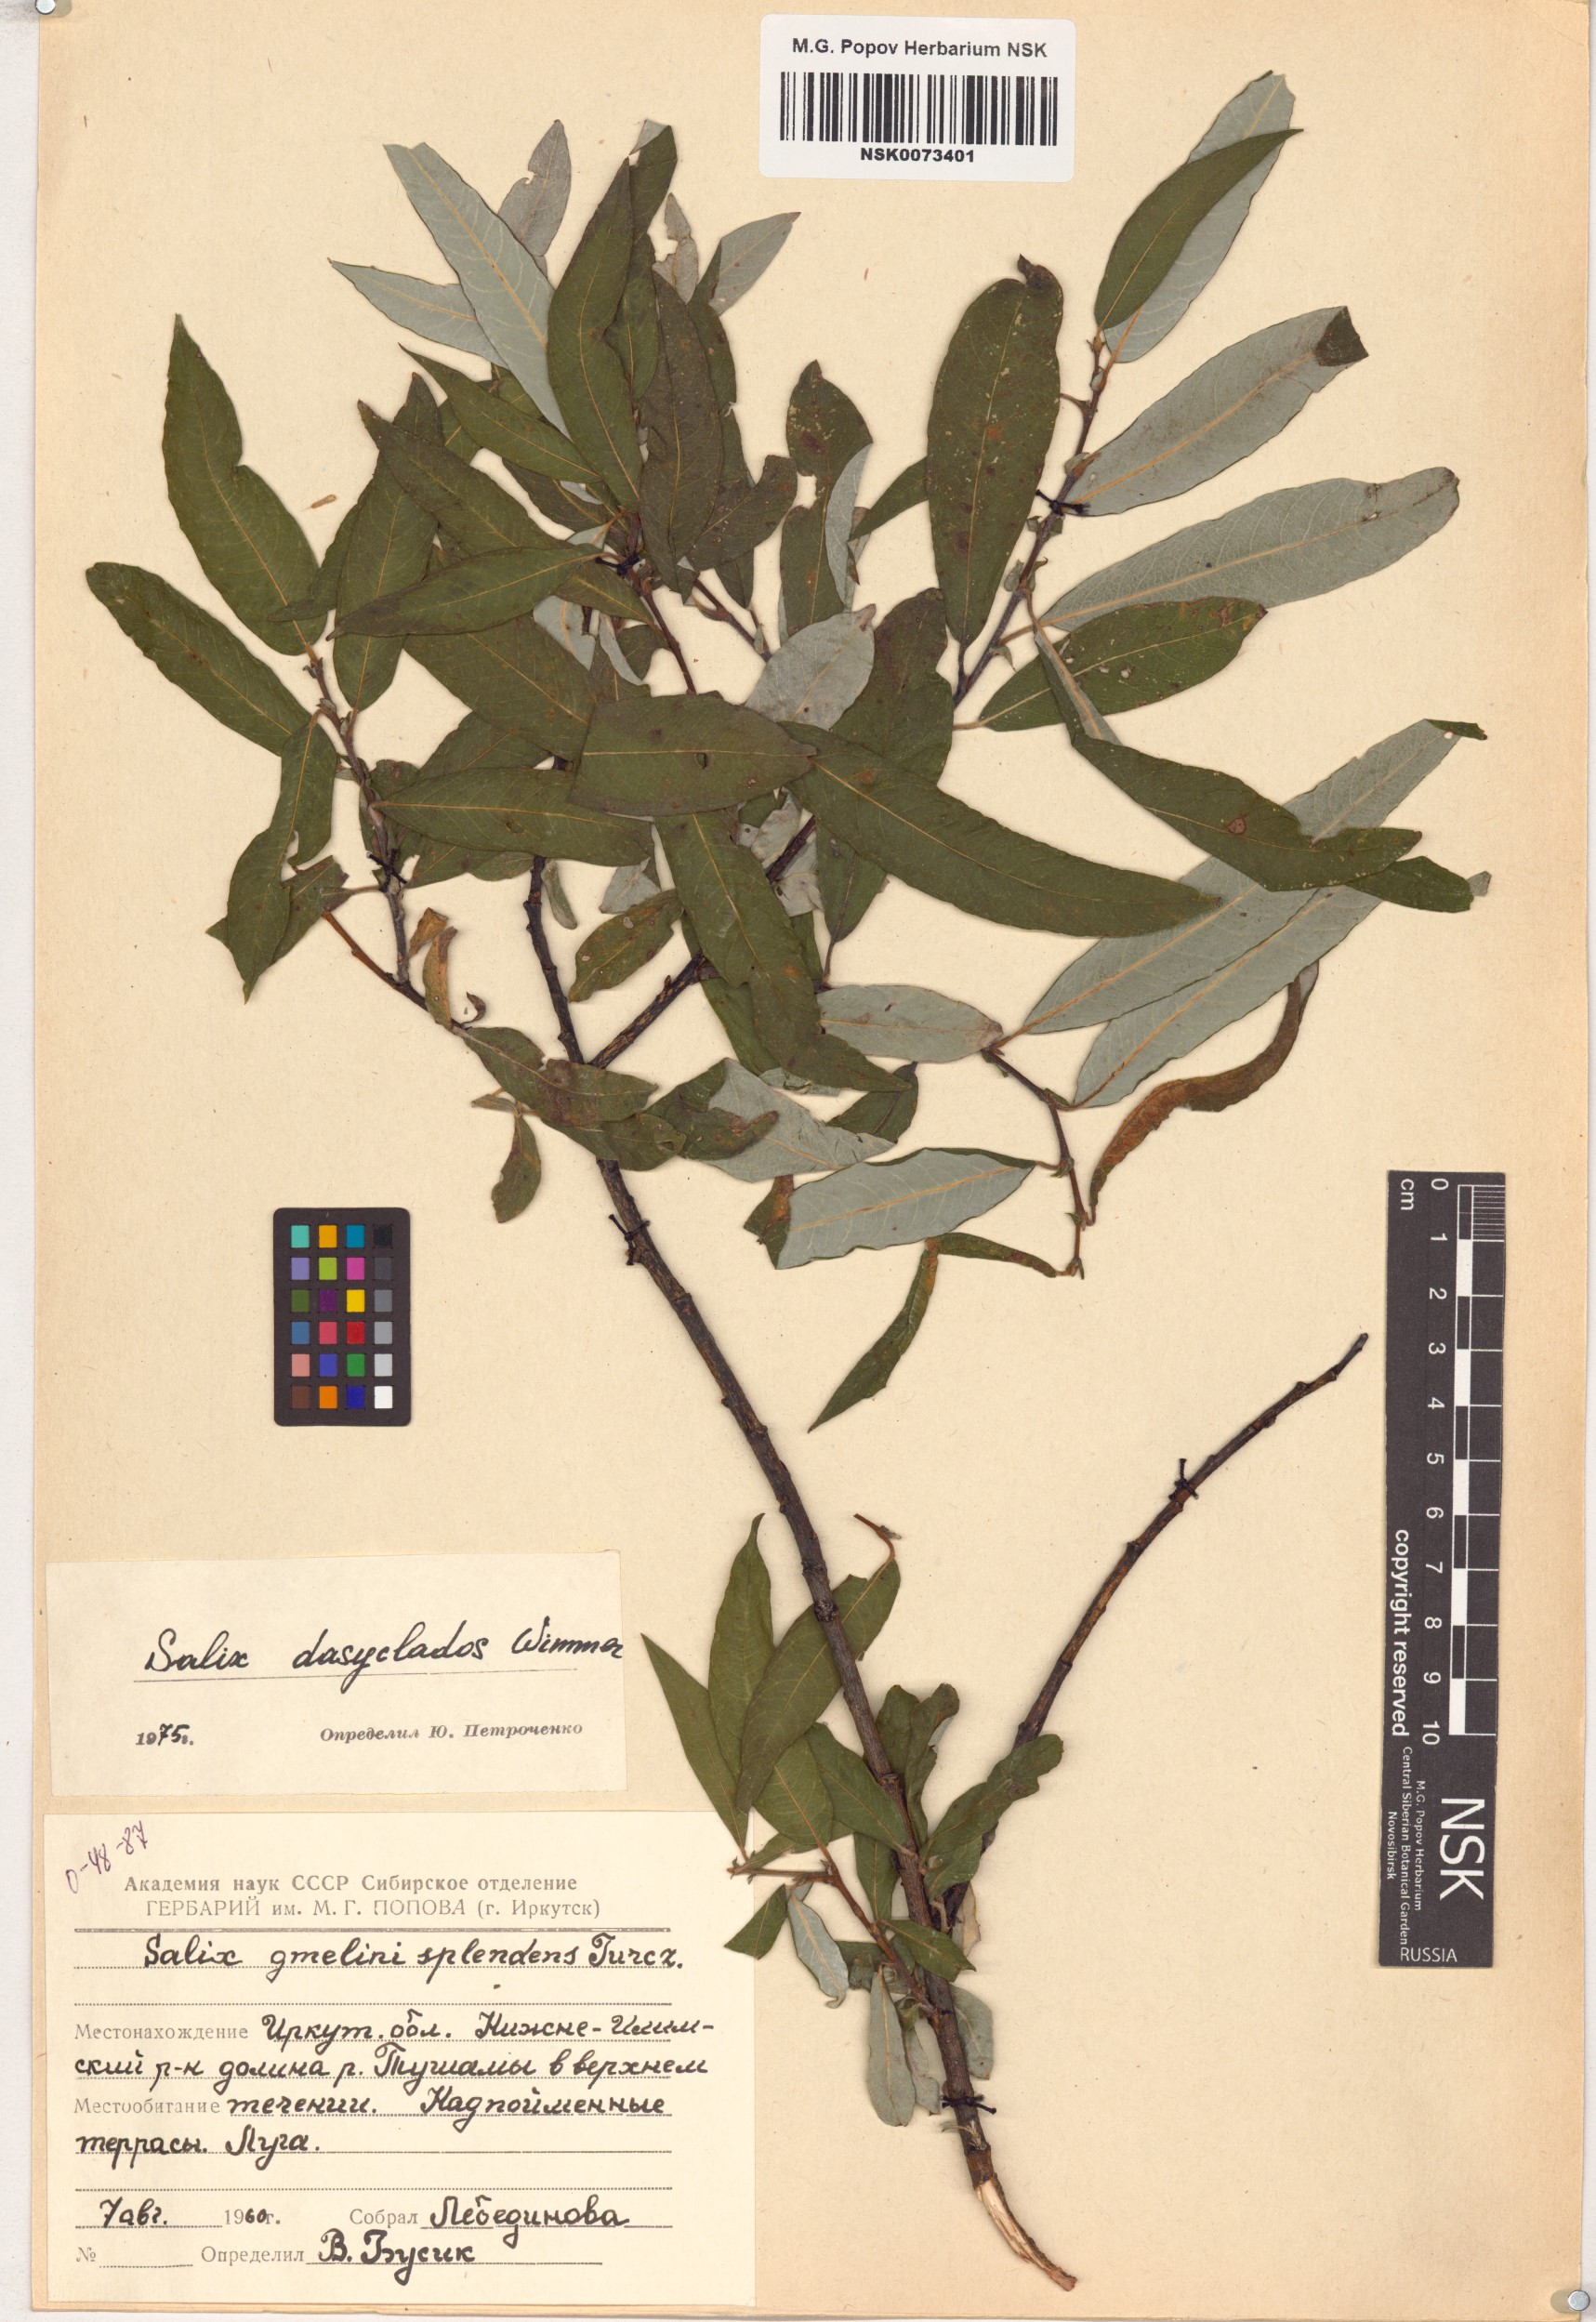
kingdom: Plantae
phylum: Tracheophyta
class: Magnoliopsida
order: Malpighiales
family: Salicaceae
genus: Salix
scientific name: Salix gmelinii
